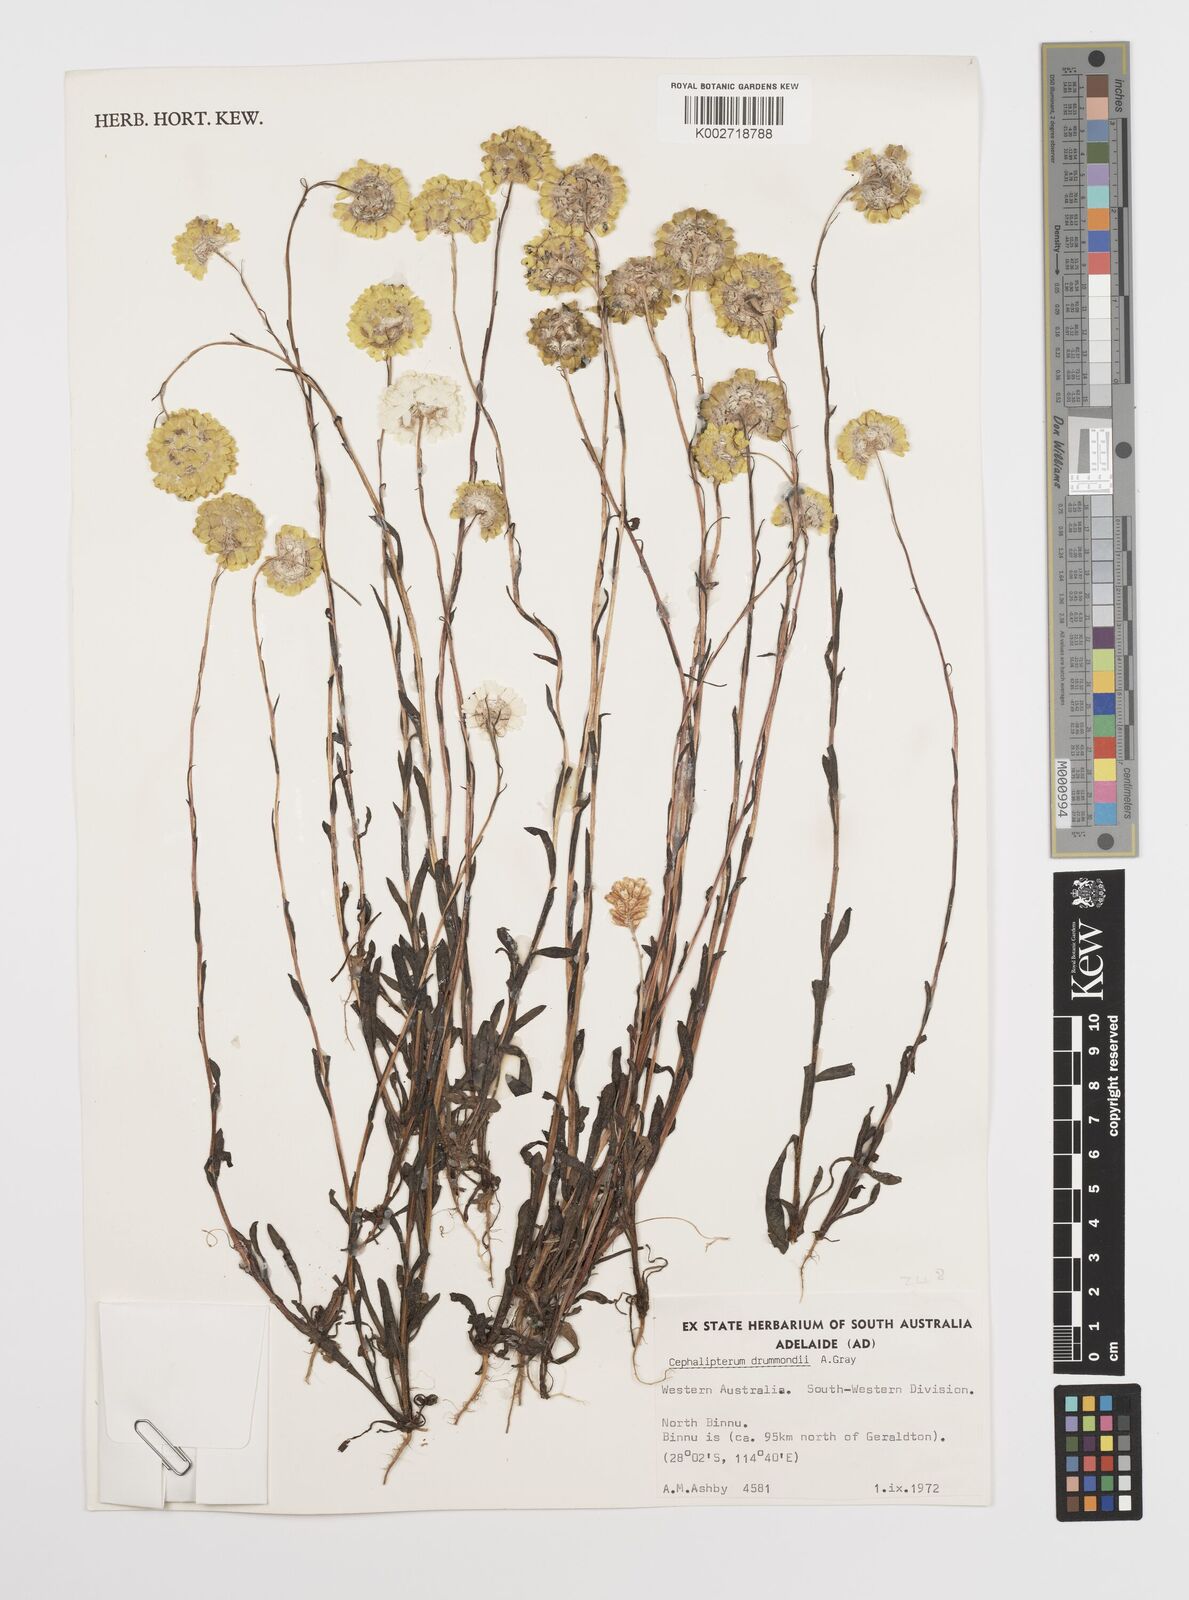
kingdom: Plantae
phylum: Tracheophyta
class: Magnoliopsida
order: Asterales
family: Asteraceae
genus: Cephalipterum
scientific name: Cephalipterum drummondii
